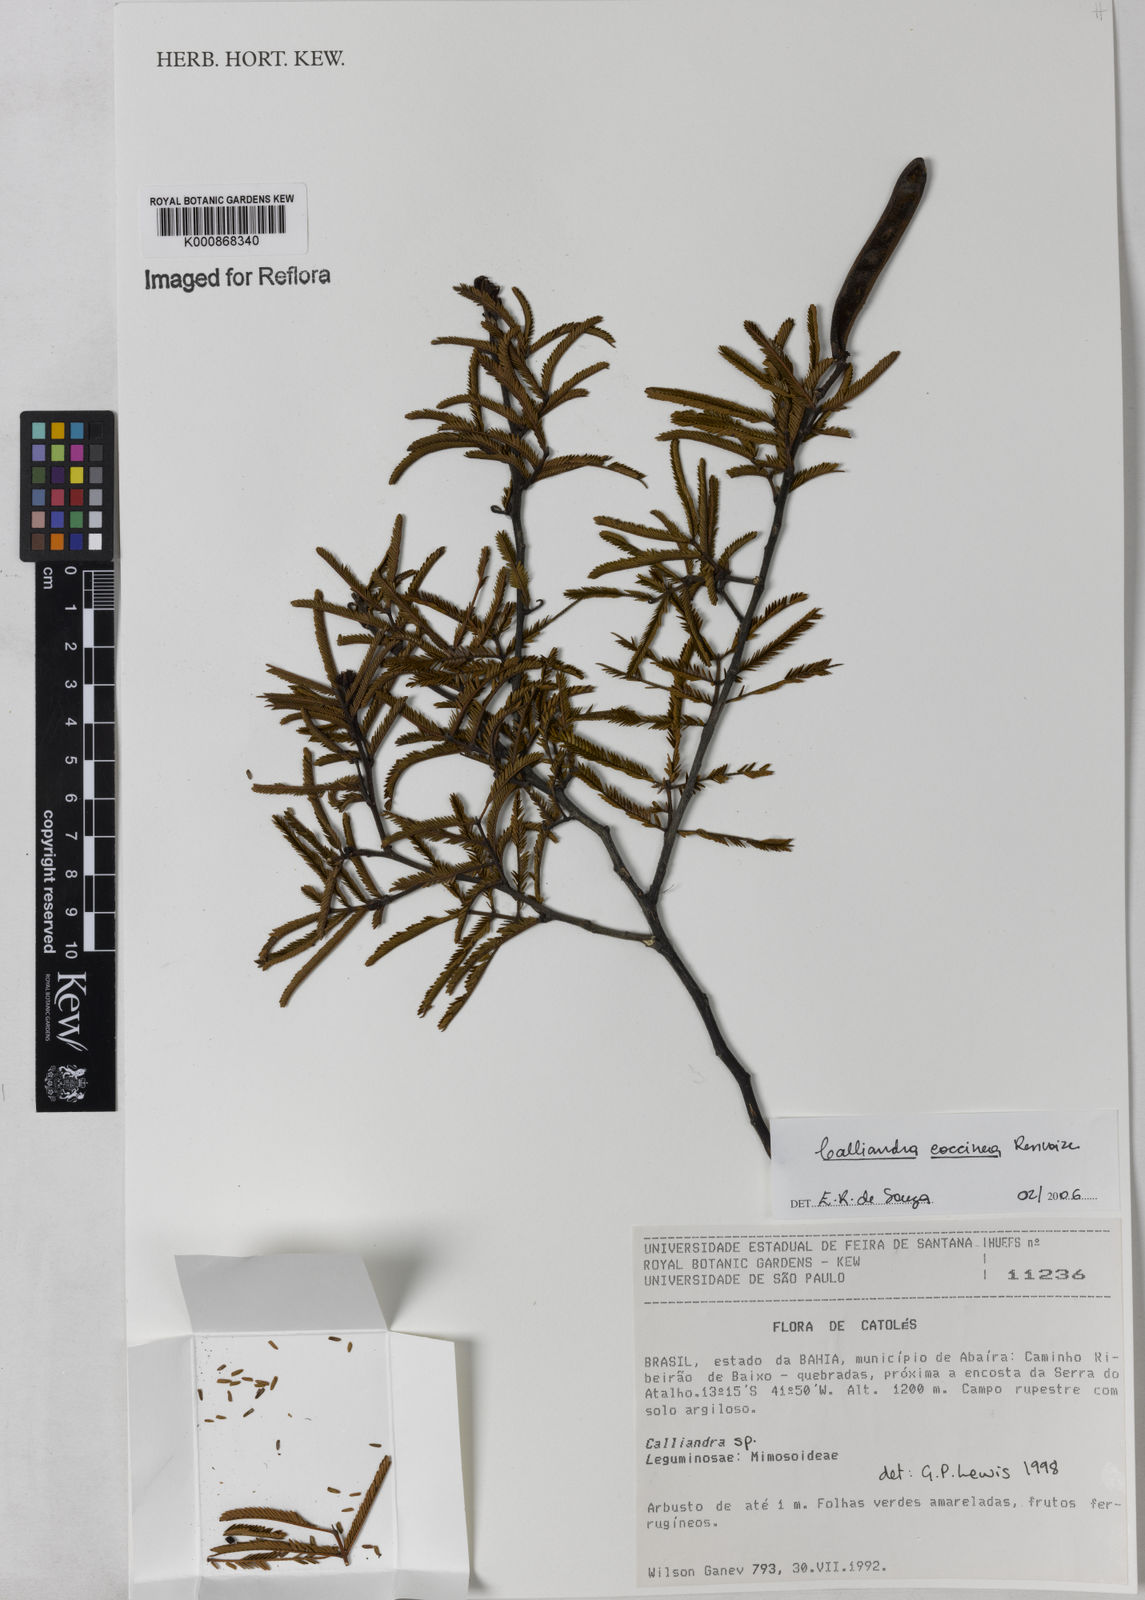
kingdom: Plantae
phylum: Tracheophyta
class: Magnoliopsida
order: Fabales
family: Fabaceae
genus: Calliandra
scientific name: Calliandra coccinea
